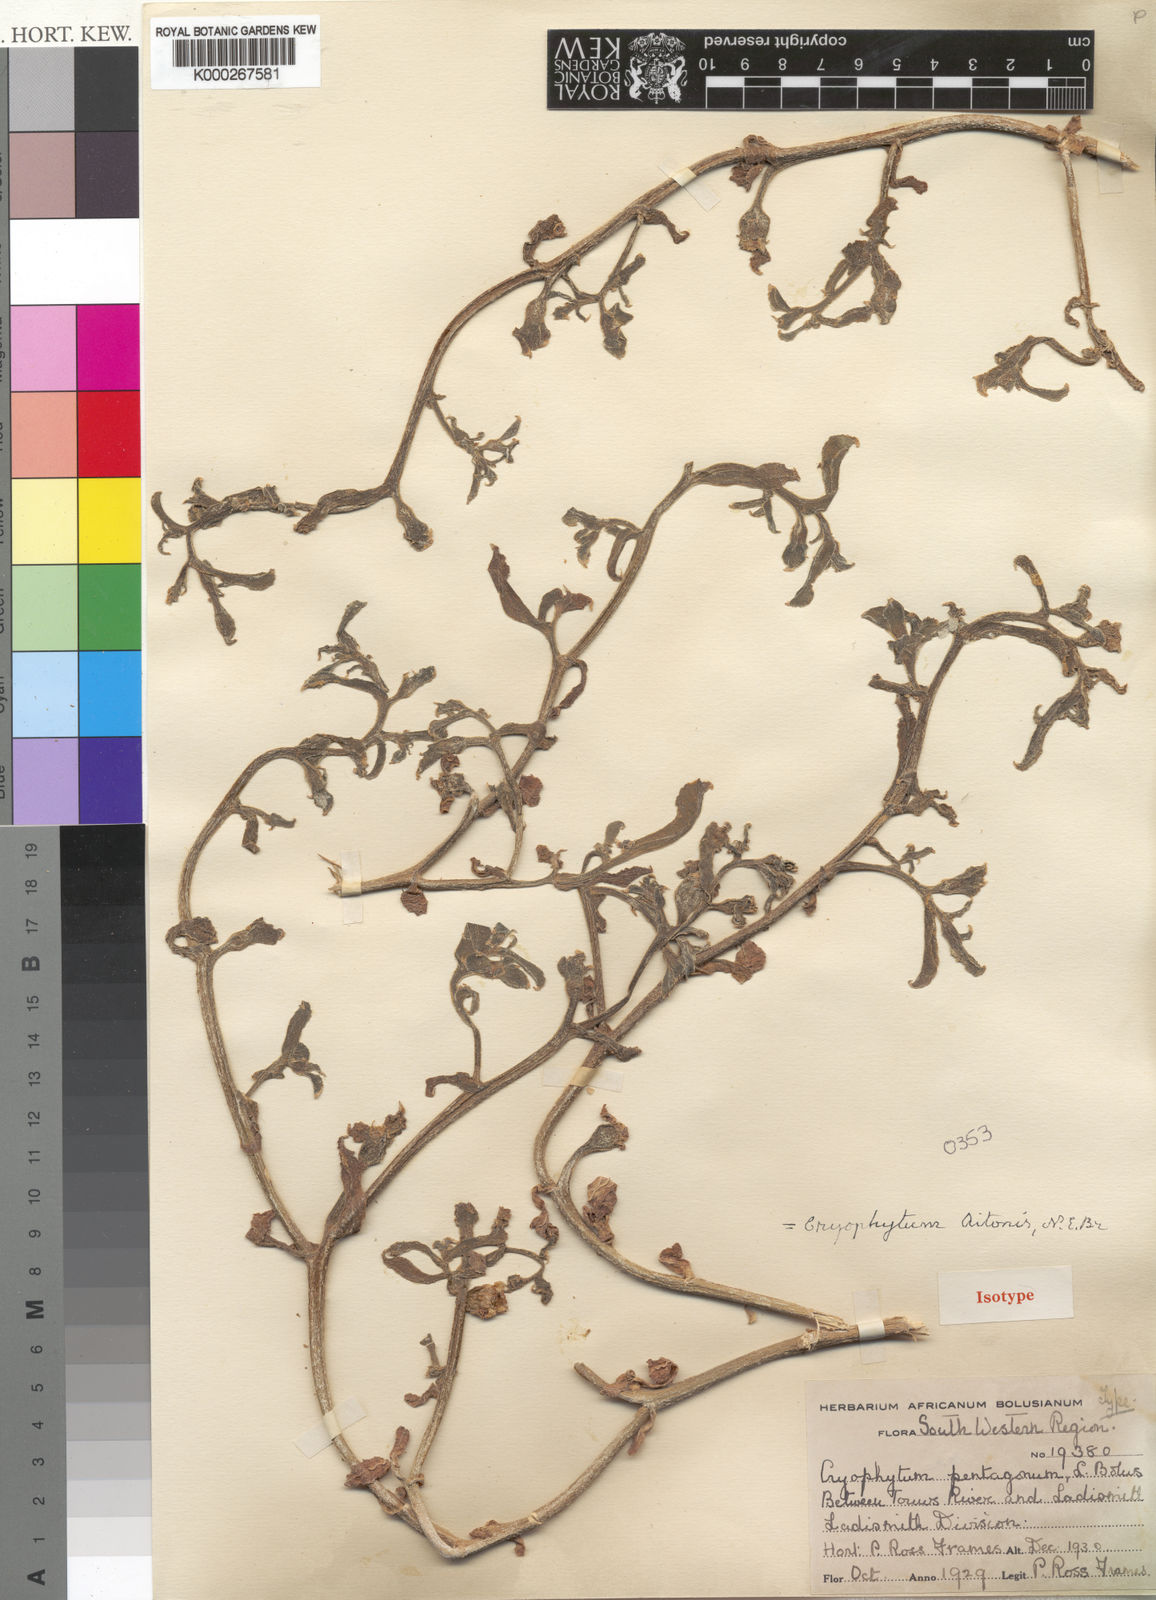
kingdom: Plantae
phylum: Tracheophyta
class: Magnoliopsida
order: Caryophyllales
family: Aizoaceae
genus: Mesembryanthemum
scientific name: Mesembryanthemum aitonis
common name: Angled iceplant
